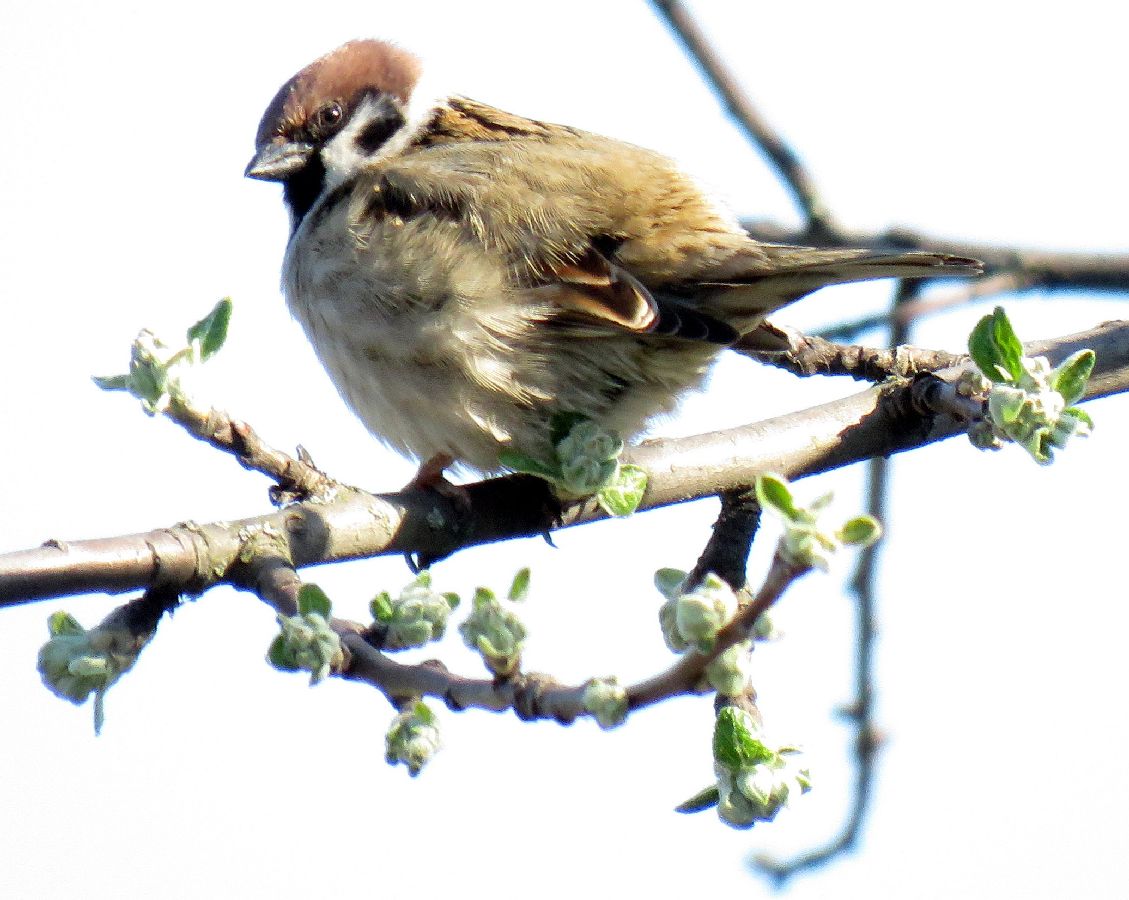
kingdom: Animalia
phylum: Chordata
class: Aves
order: Passeriformes
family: Passeridae
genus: Passer
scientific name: Passer montanus
